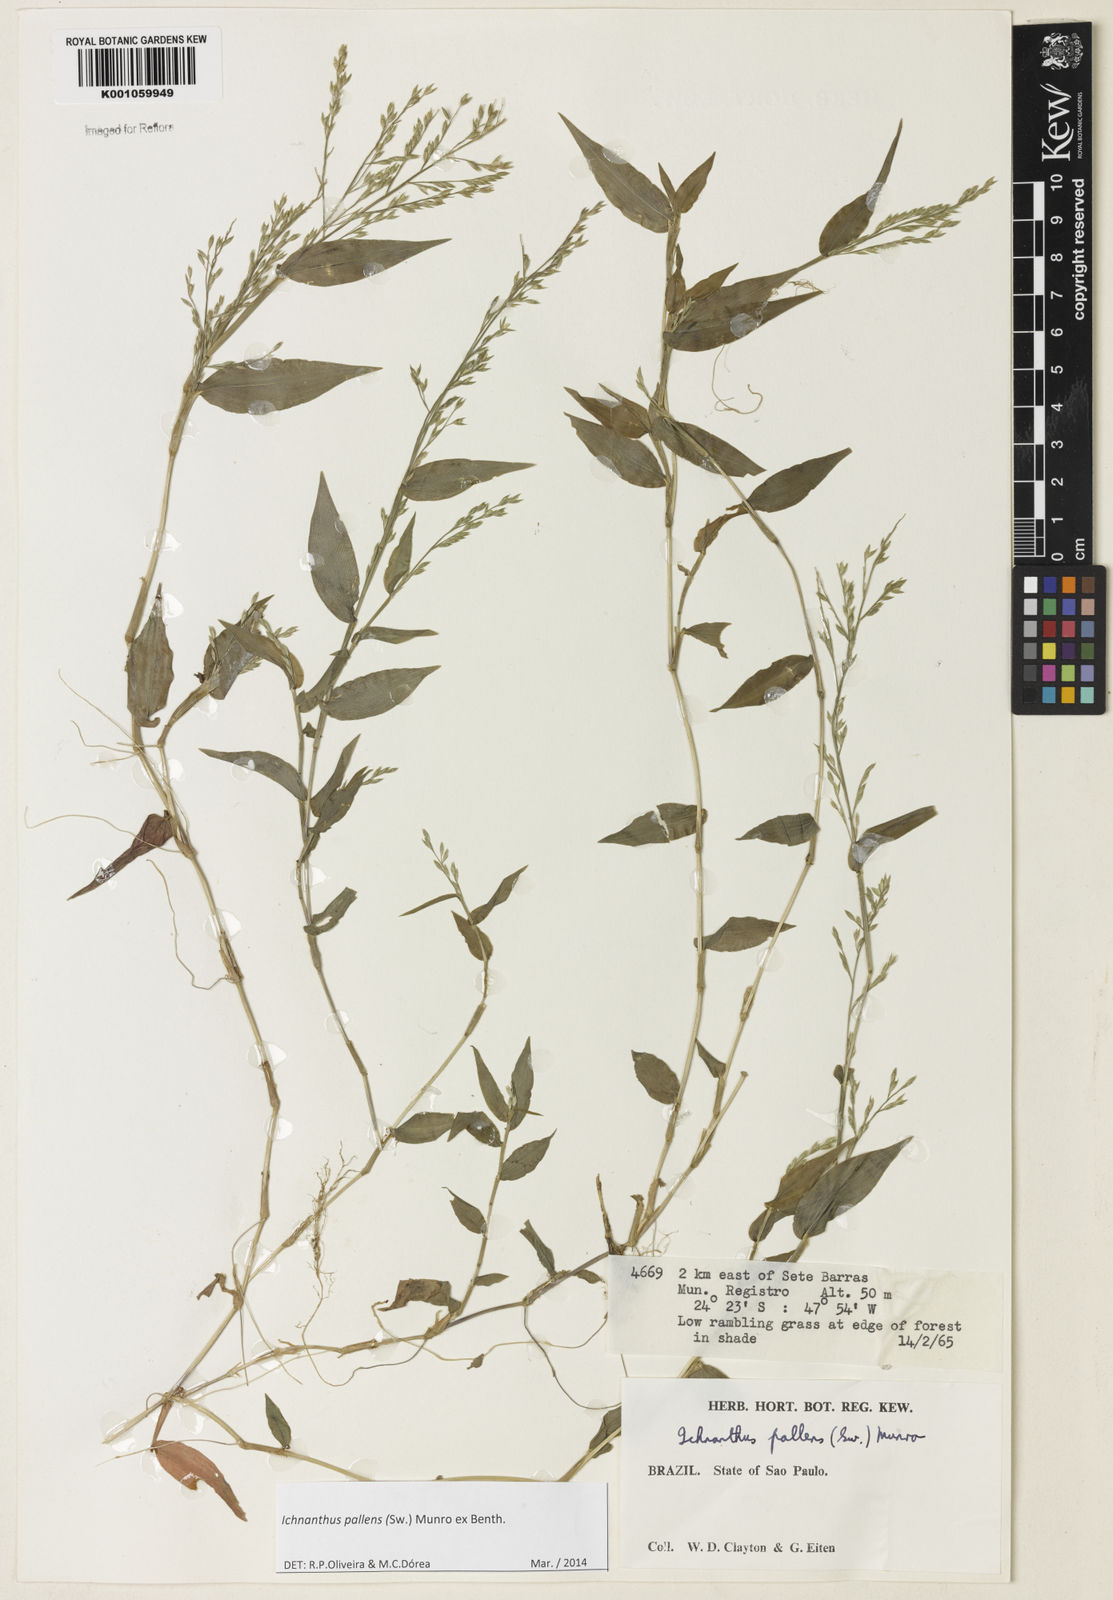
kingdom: Plantae
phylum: Tracheophyta
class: Liliopsida
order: Poales
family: Poaceae
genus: Ichnanthus
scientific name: Ichnanthus pallens
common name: Water grass
